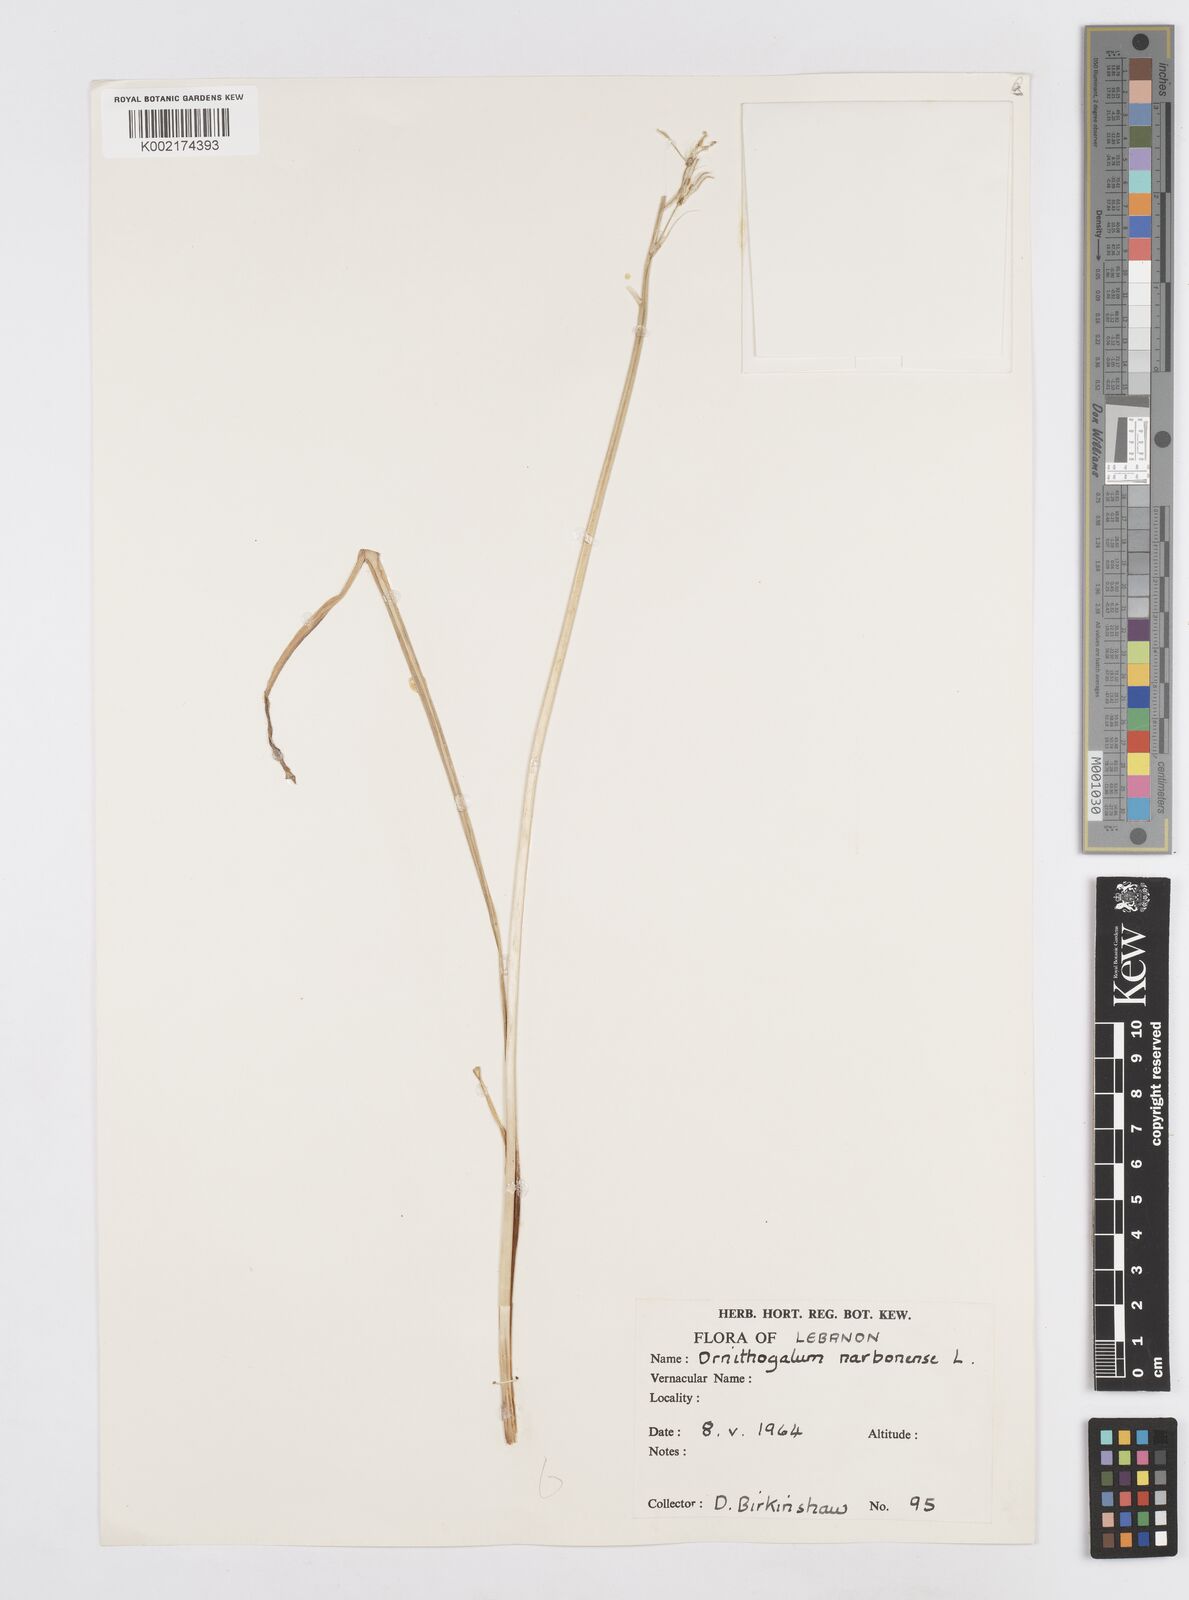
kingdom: Plantae
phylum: Tracheophyta
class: Liliopsida
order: Asparagales
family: Asparagaceae
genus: Ornithogalum
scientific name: Ornithogalum narbonense
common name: Bath-asparagus
